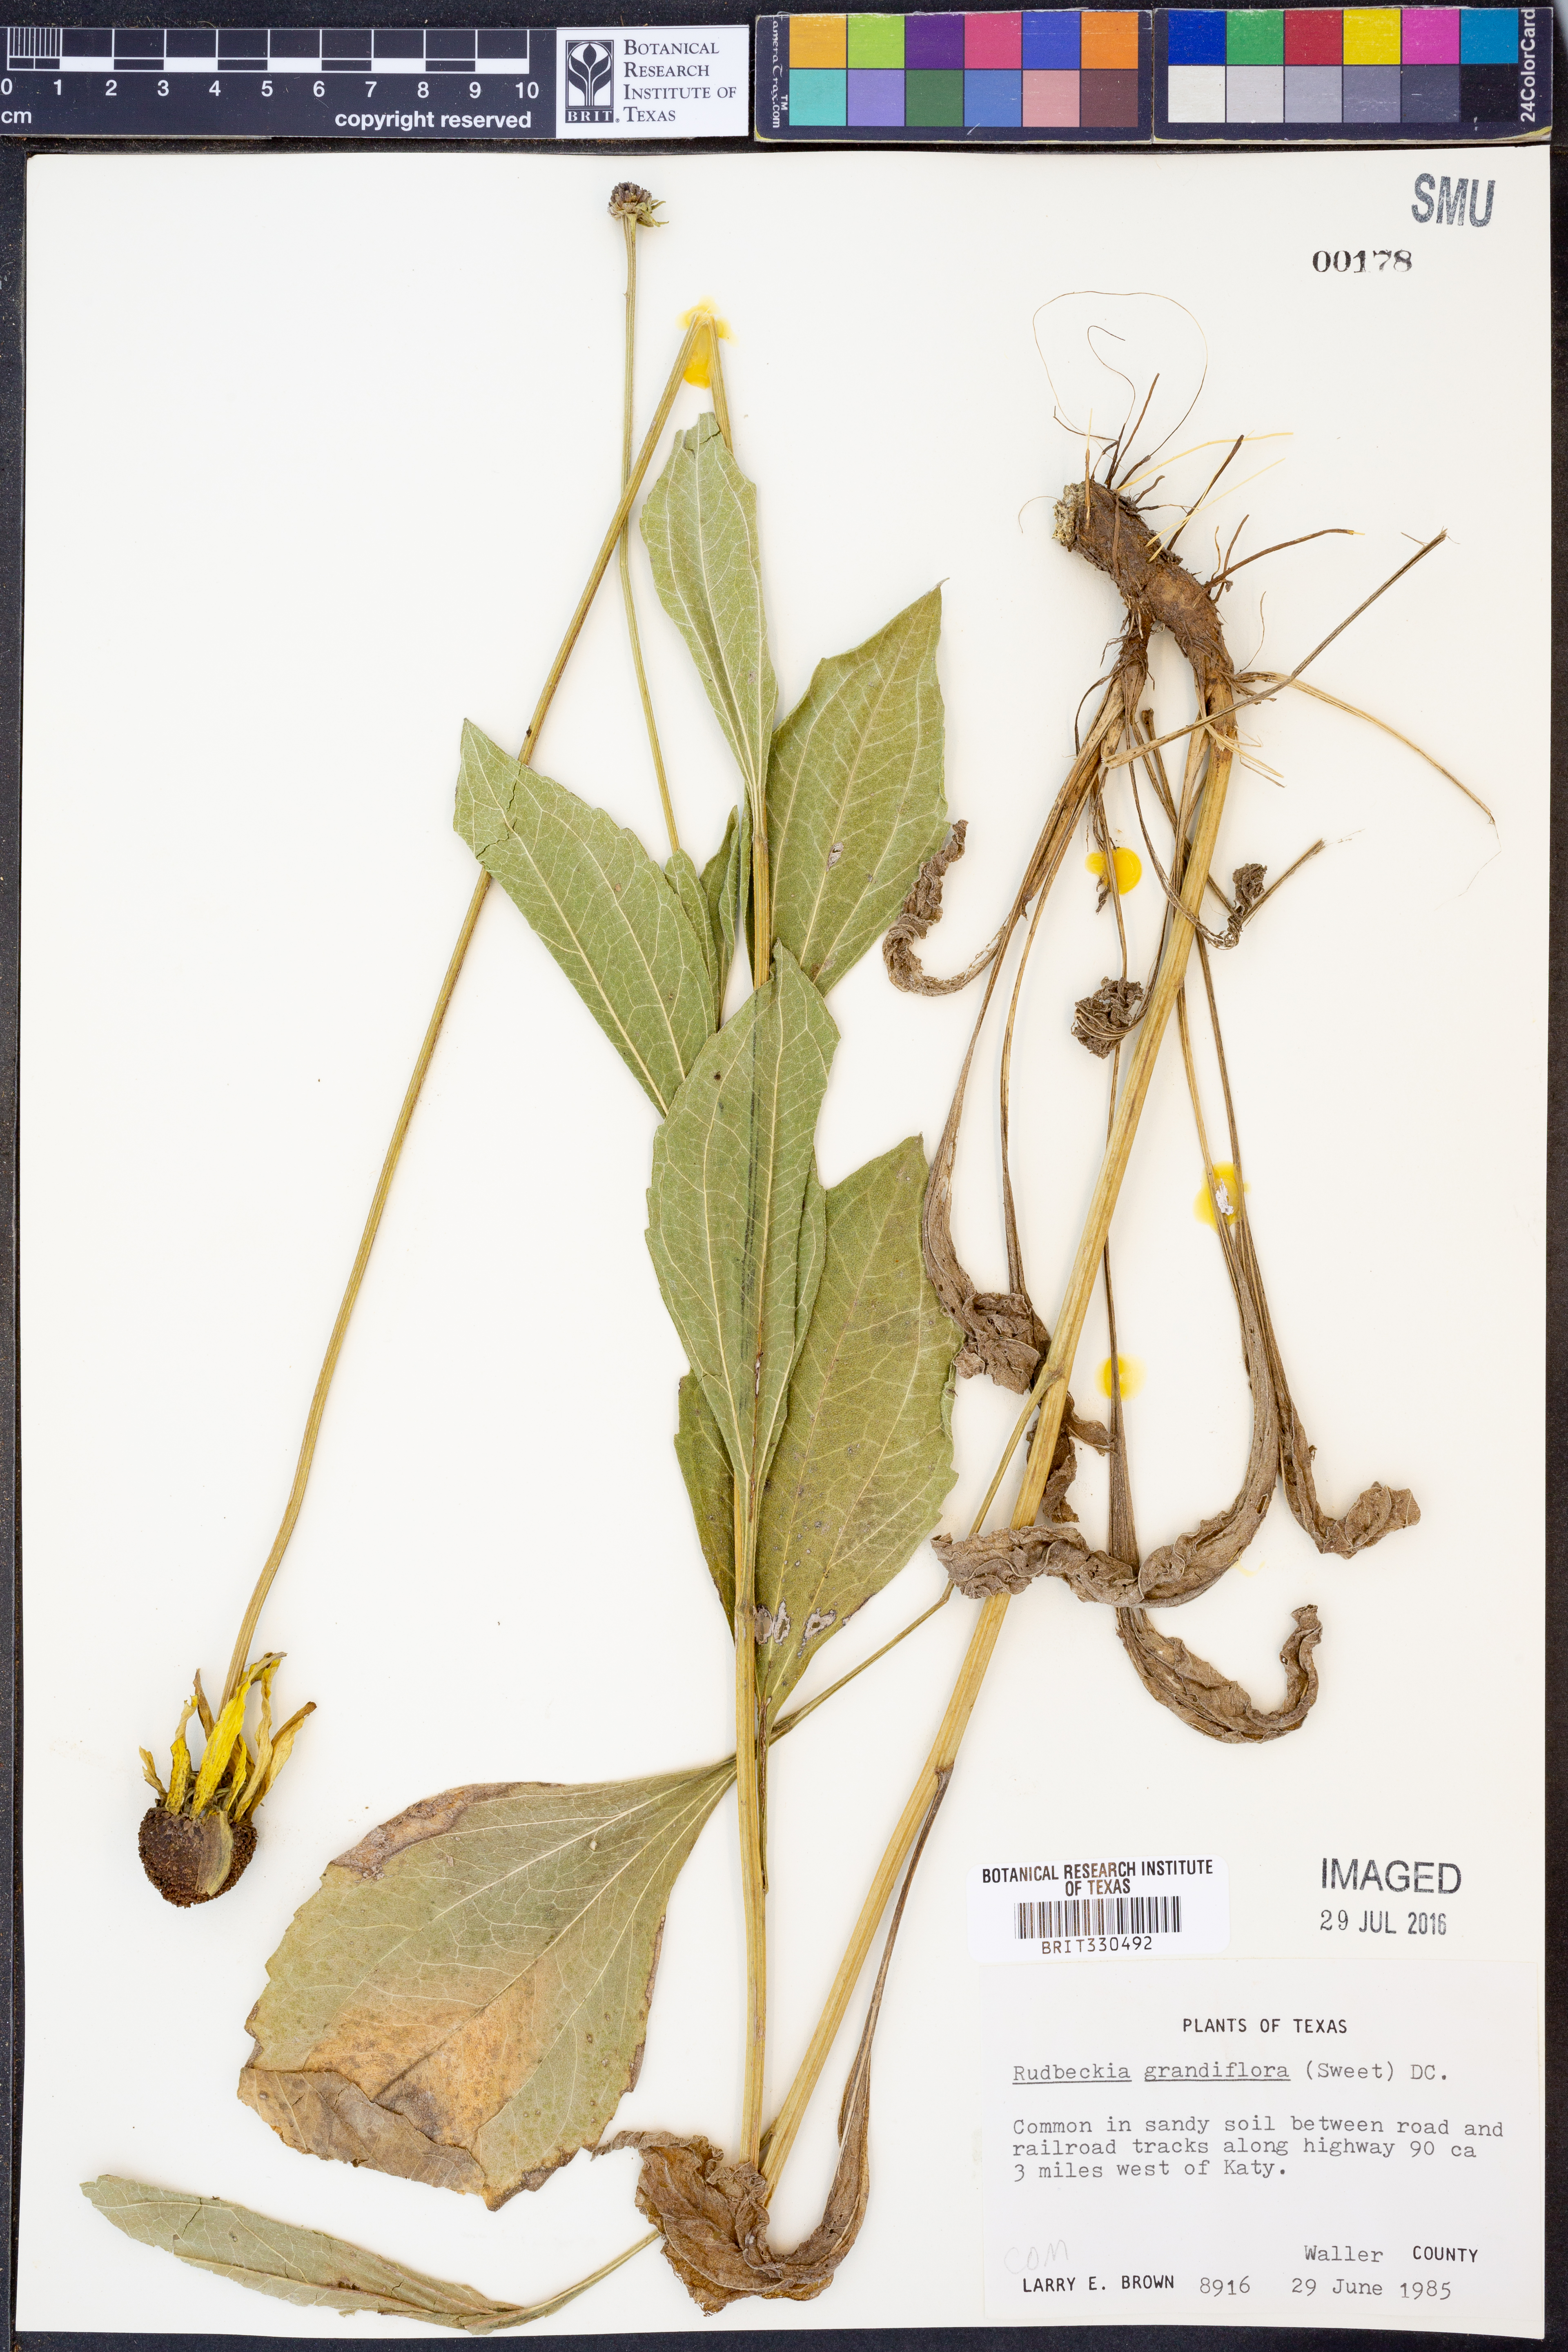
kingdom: Plantae
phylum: Tracheophyta
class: Magnoliopsida
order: Asterales
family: Asteraceae
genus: Rudbeckia
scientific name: Rudbeckia grandiflora
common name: Large-flowered coneflower
